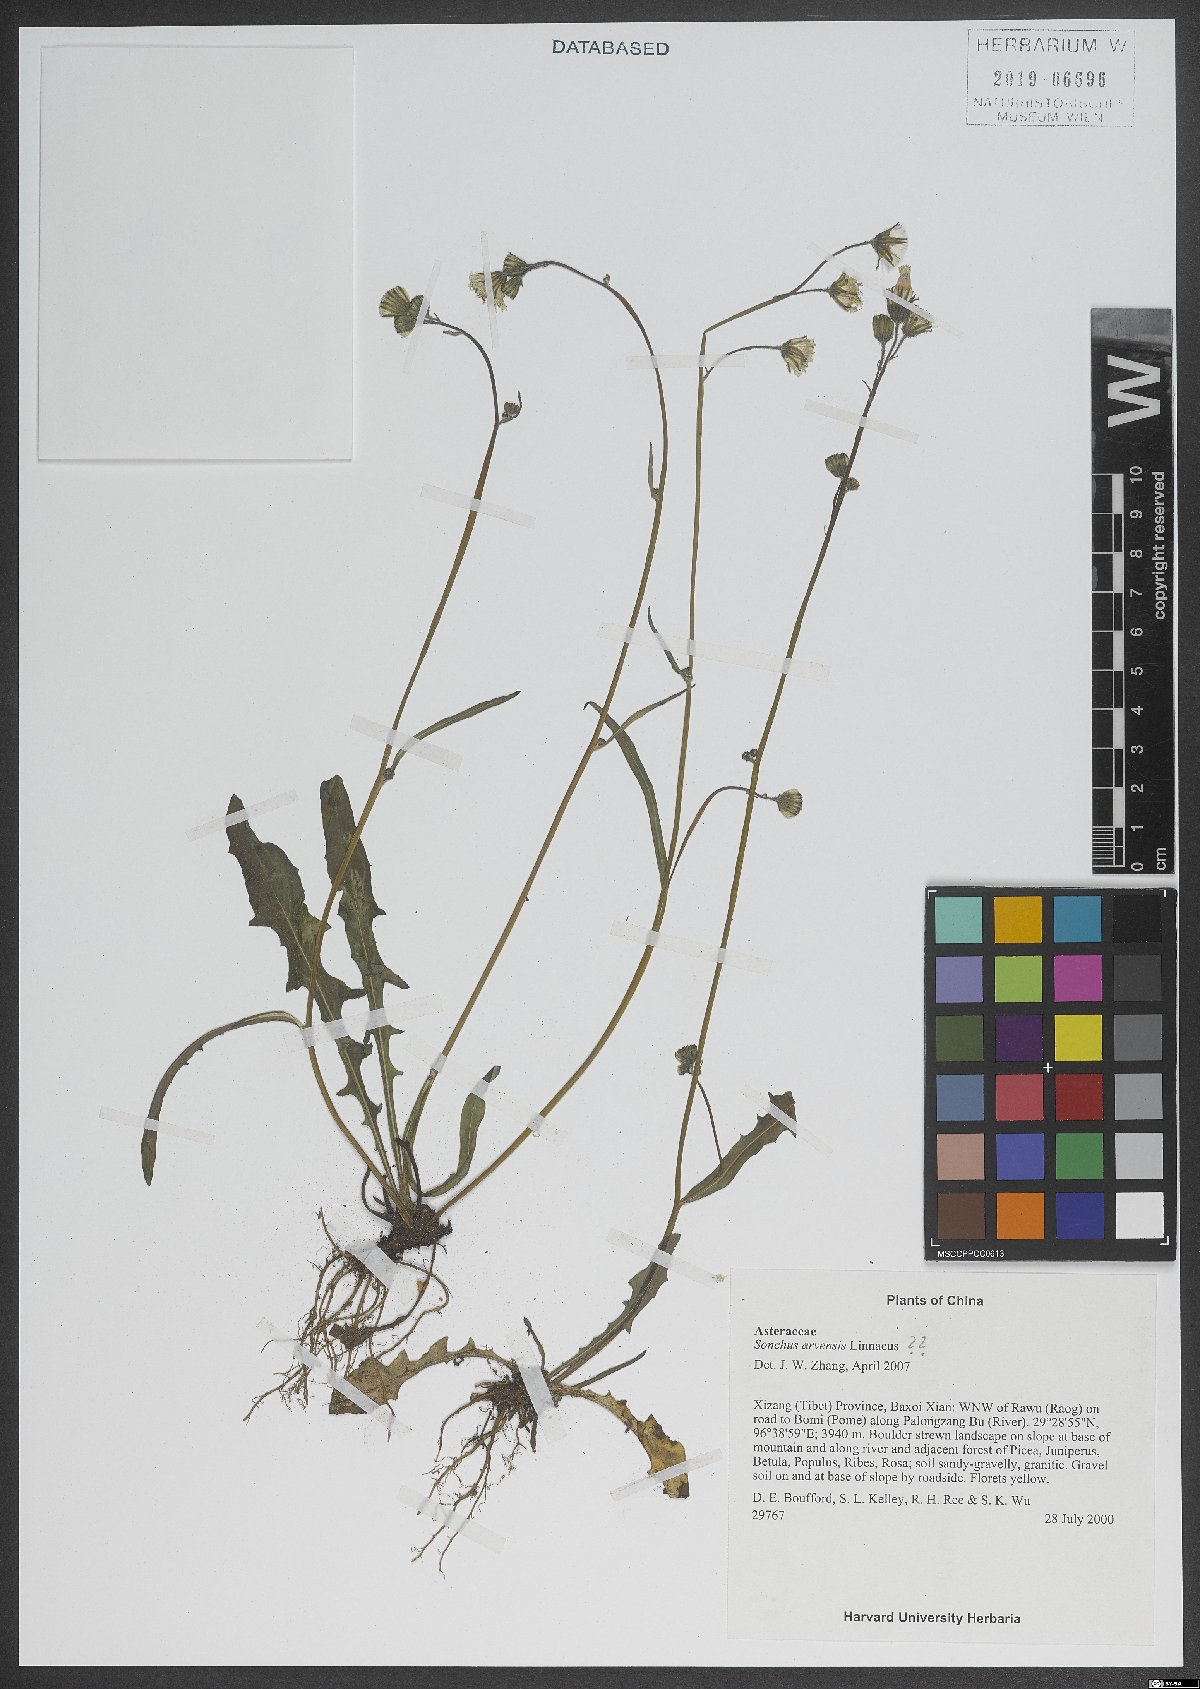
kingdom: Plantae
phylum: Tracheophyta
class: Magnoliopsida
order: Asterales
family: Asteraceae
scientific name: Asteraceae
